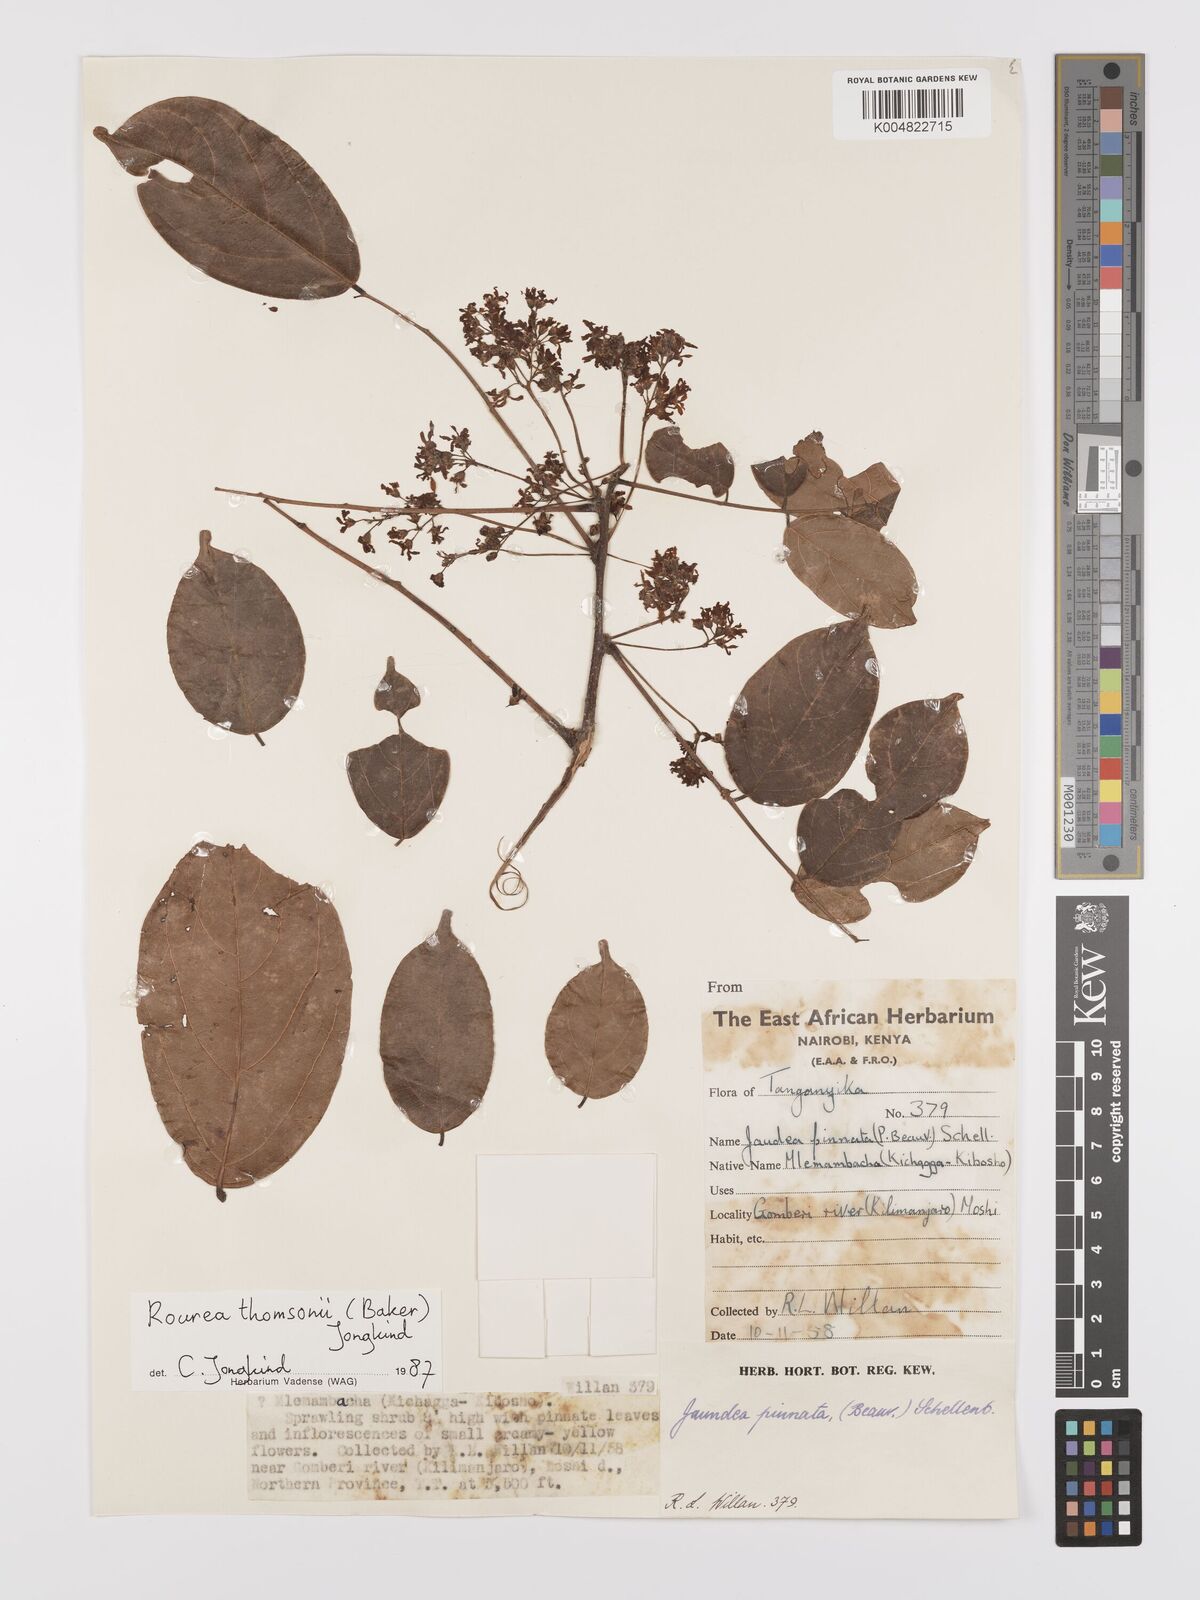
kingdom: Plantae
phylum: Tracheophyta
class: Magnoliopsida
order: Oxalidales
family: Connaraceae
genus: Rourea
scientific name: Rourea pinnata
